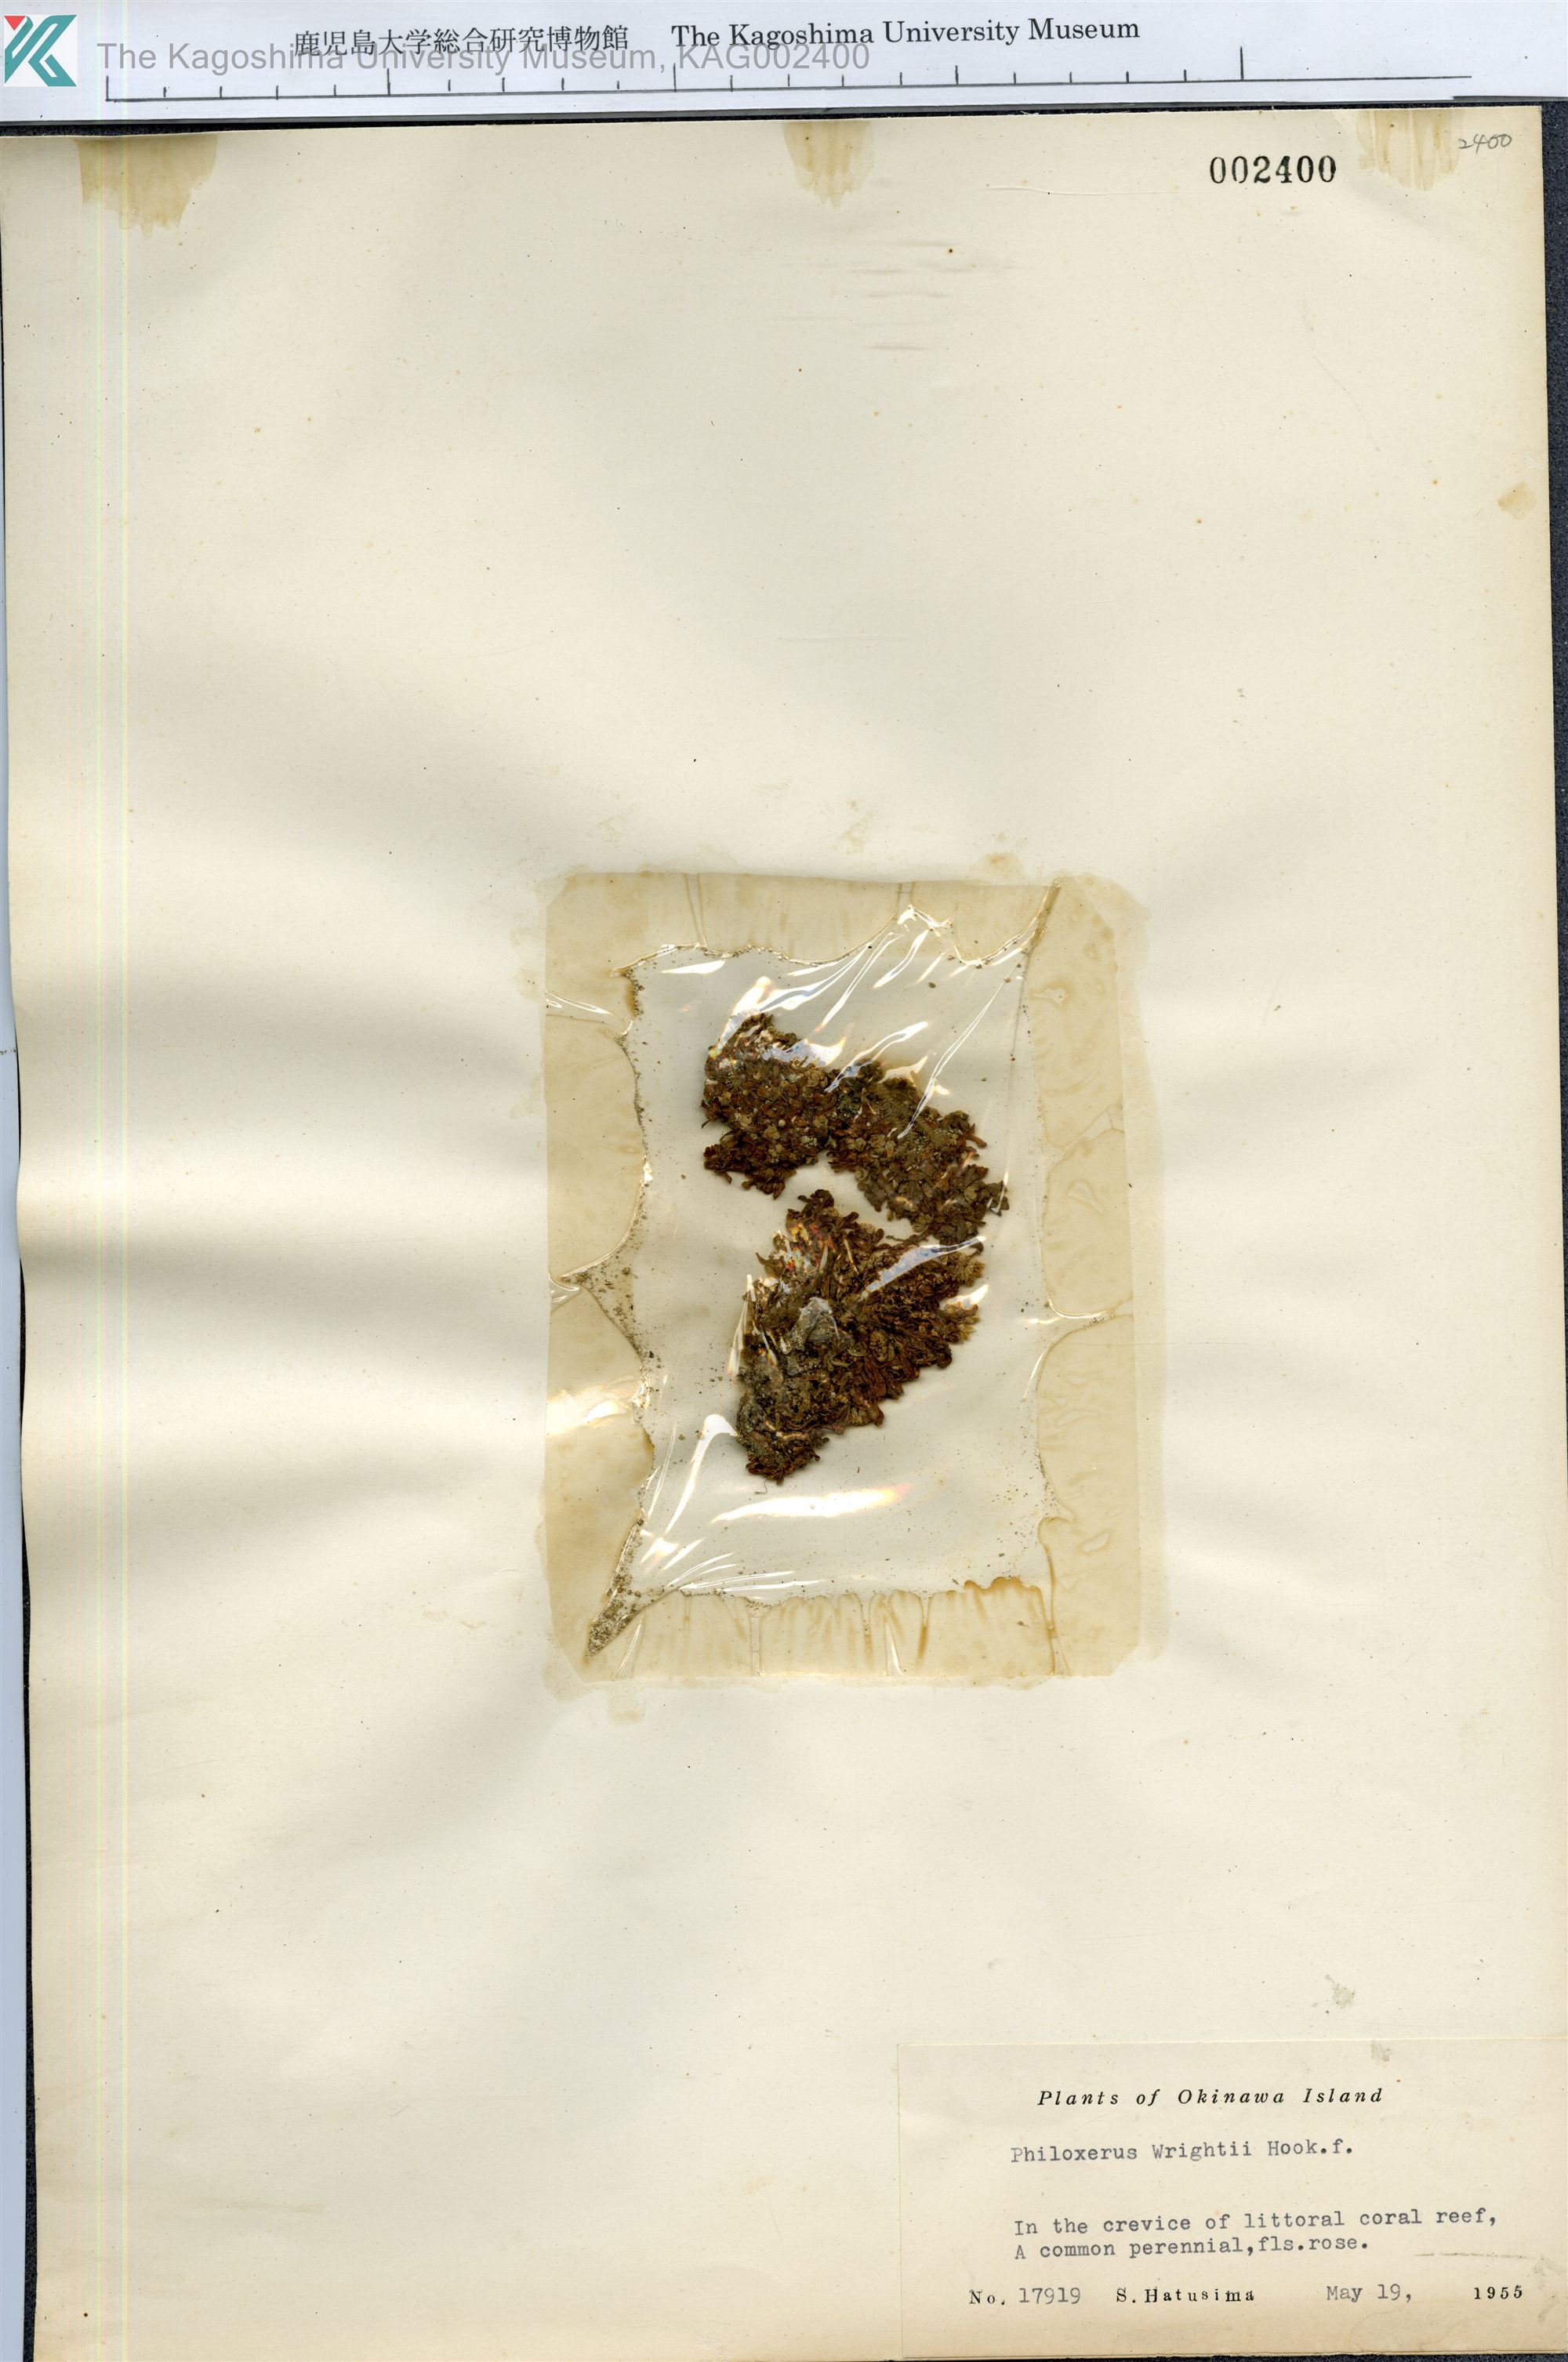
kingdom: Plantae
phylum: Tracheophyta
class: Magnoliopsida
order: Caryophyllales
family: Amaranthaceae
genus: Gomphrena
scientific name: Gomphrena wrightii
